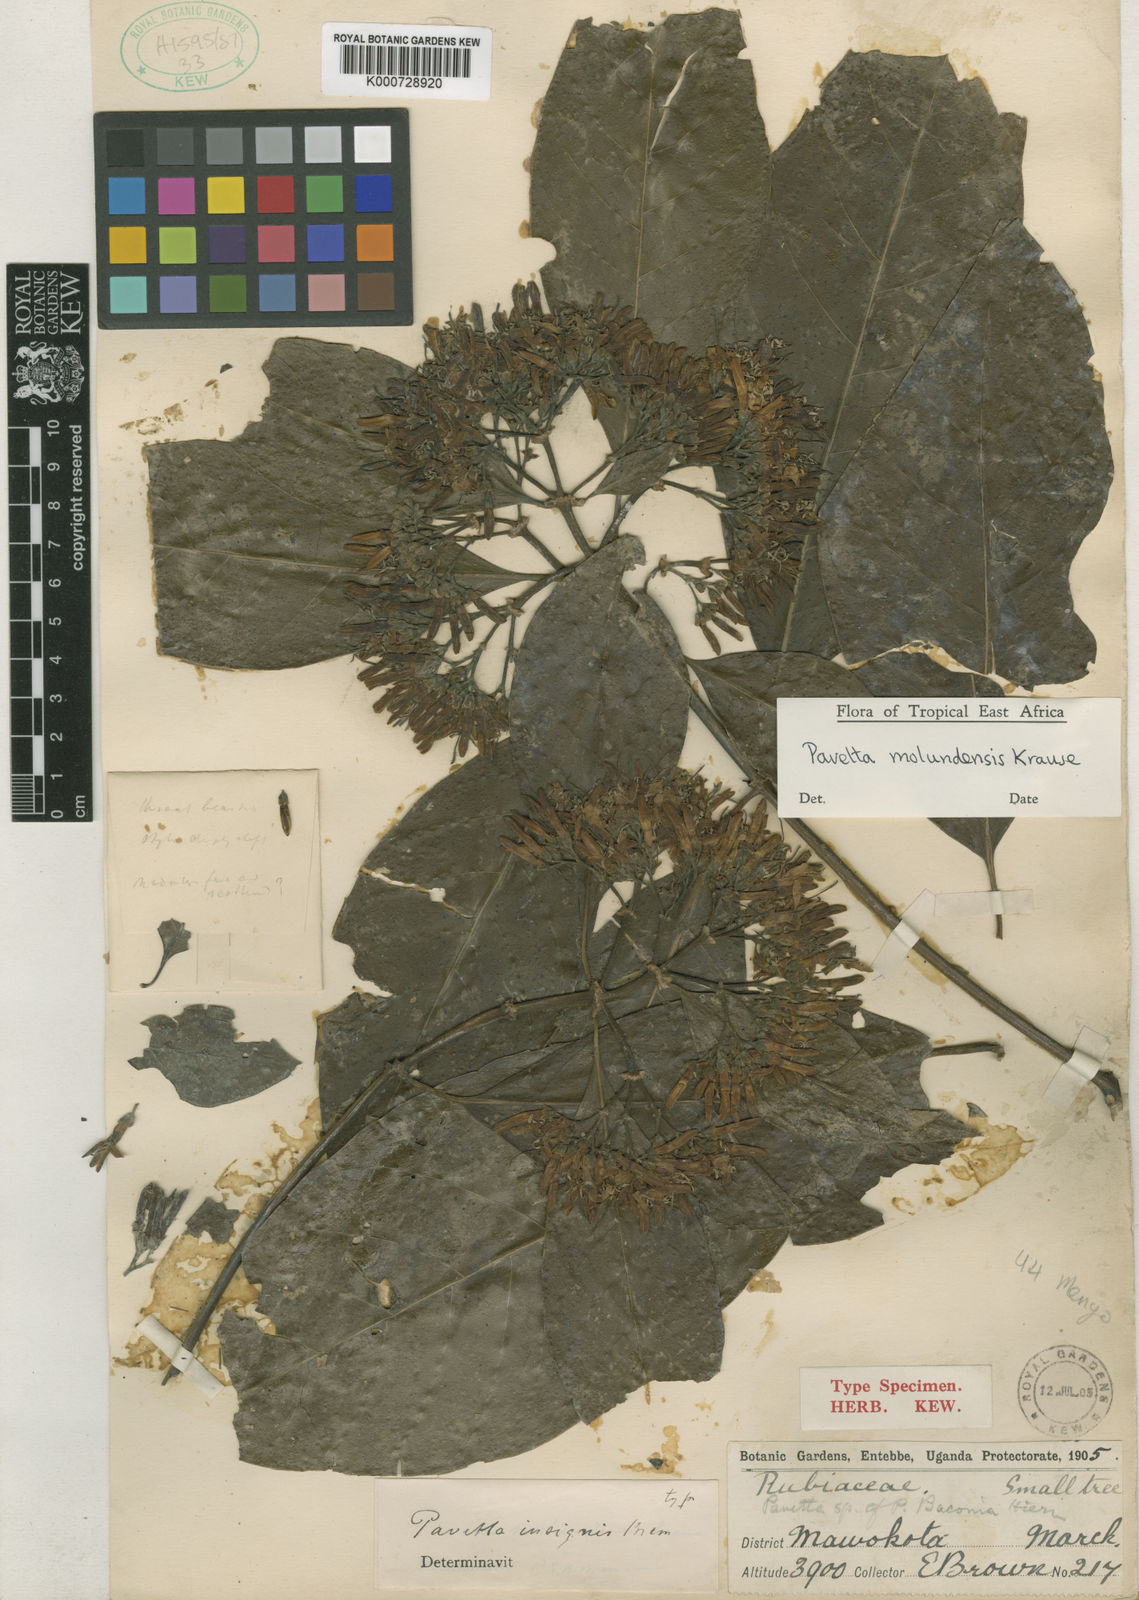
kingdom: Plantae
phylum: Tracheophyta
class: Magnoliopsida
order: Gentianales
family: Rubiaceae
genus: Pavetta
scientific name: Pavetta molundensis
